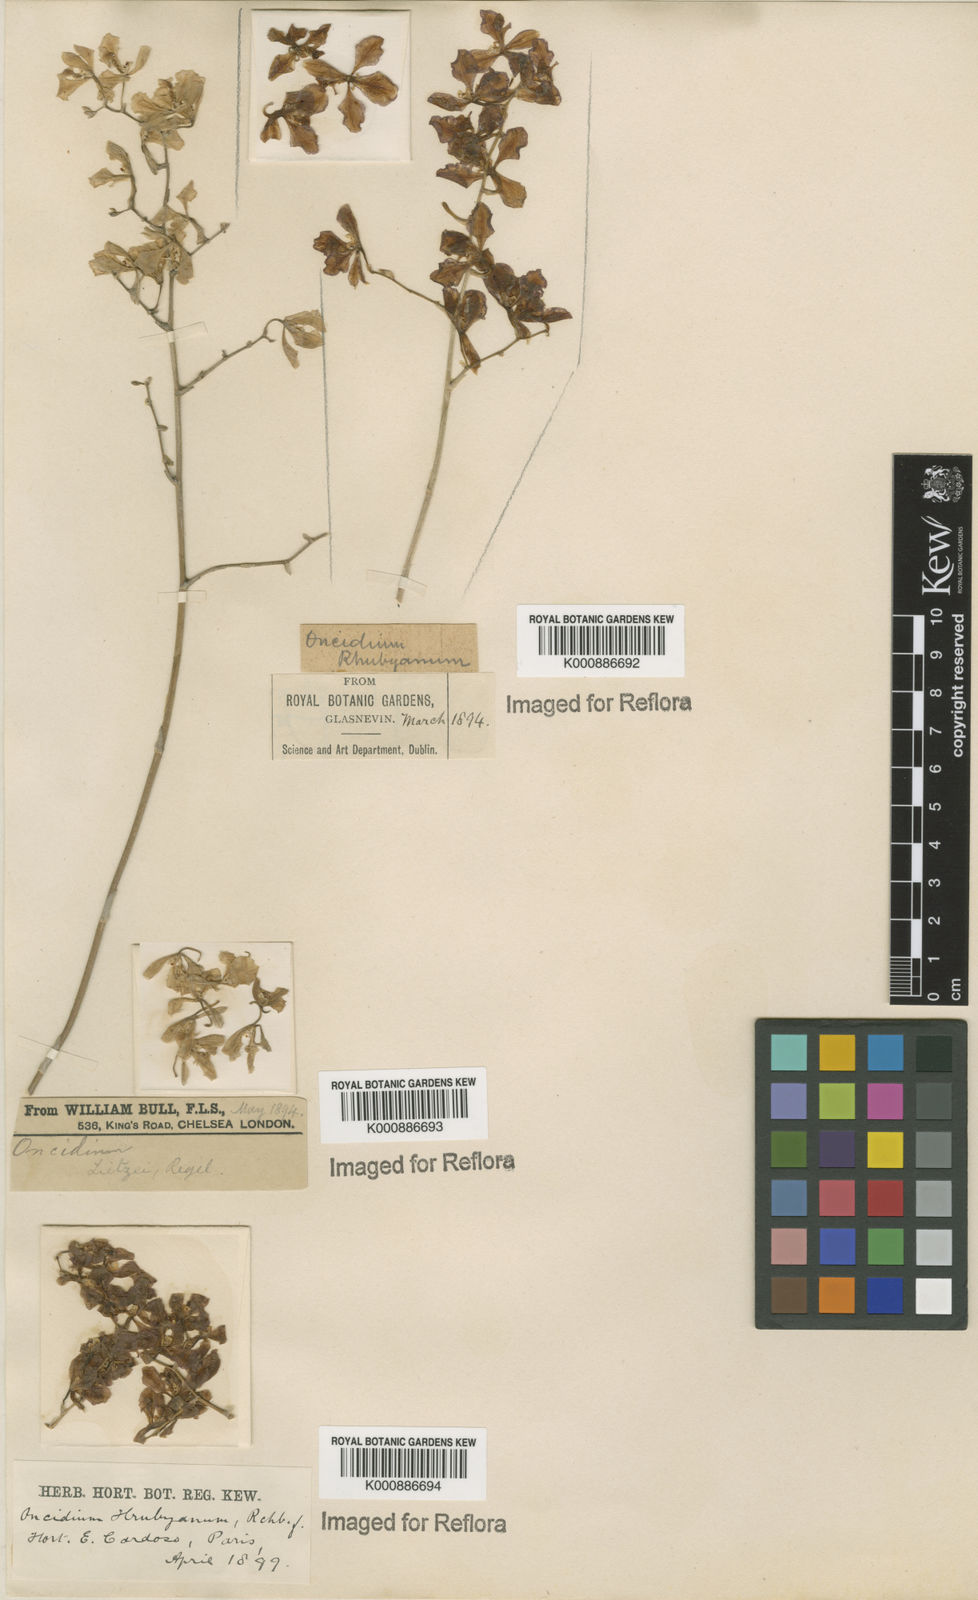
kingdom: Plantae
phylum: Tracheophyta
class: Liliopsida
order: Asparagales
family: Orchidaceae
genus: Gomesa
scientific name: Gomesa lietzei
